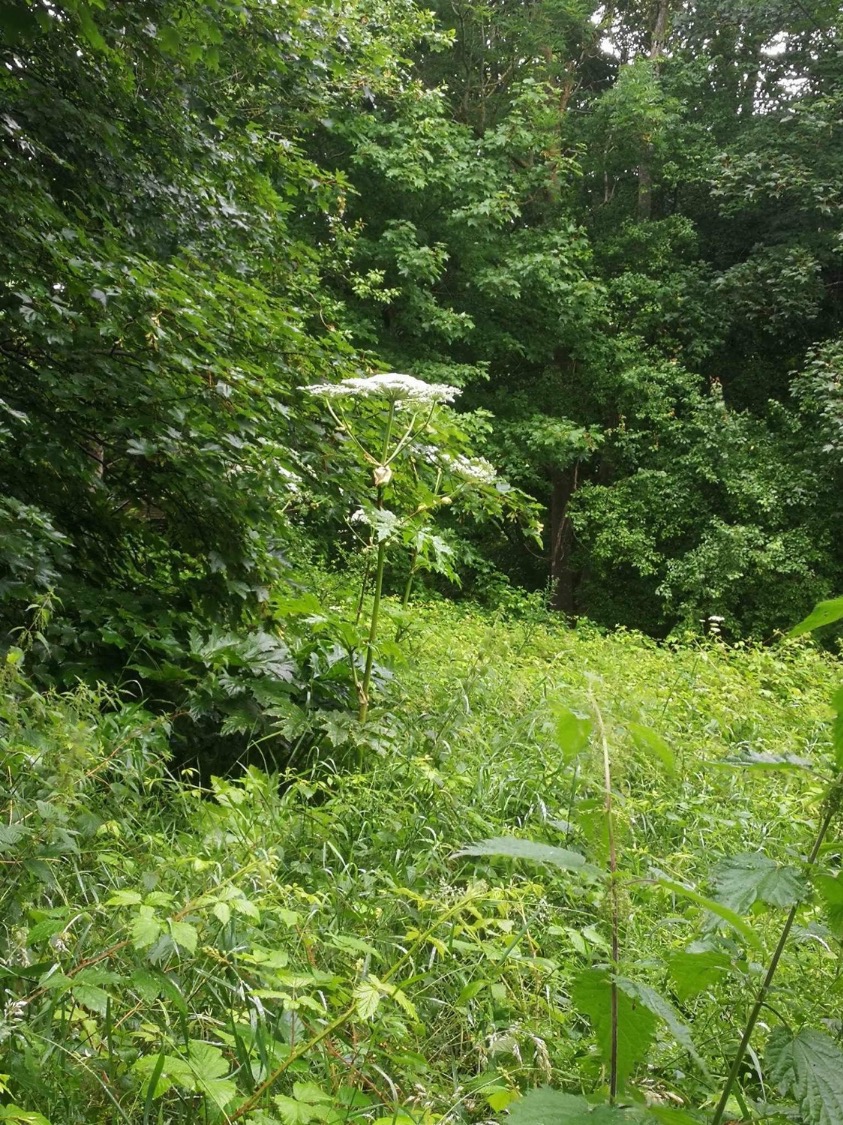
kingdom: Plantae
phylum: Tracheophyta
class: Magnoliopsida
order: Apiales
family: Apiaceae
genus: Heracleum
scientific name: Heracleum mantegazzianum
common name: Kæmpe-bjørneklo
